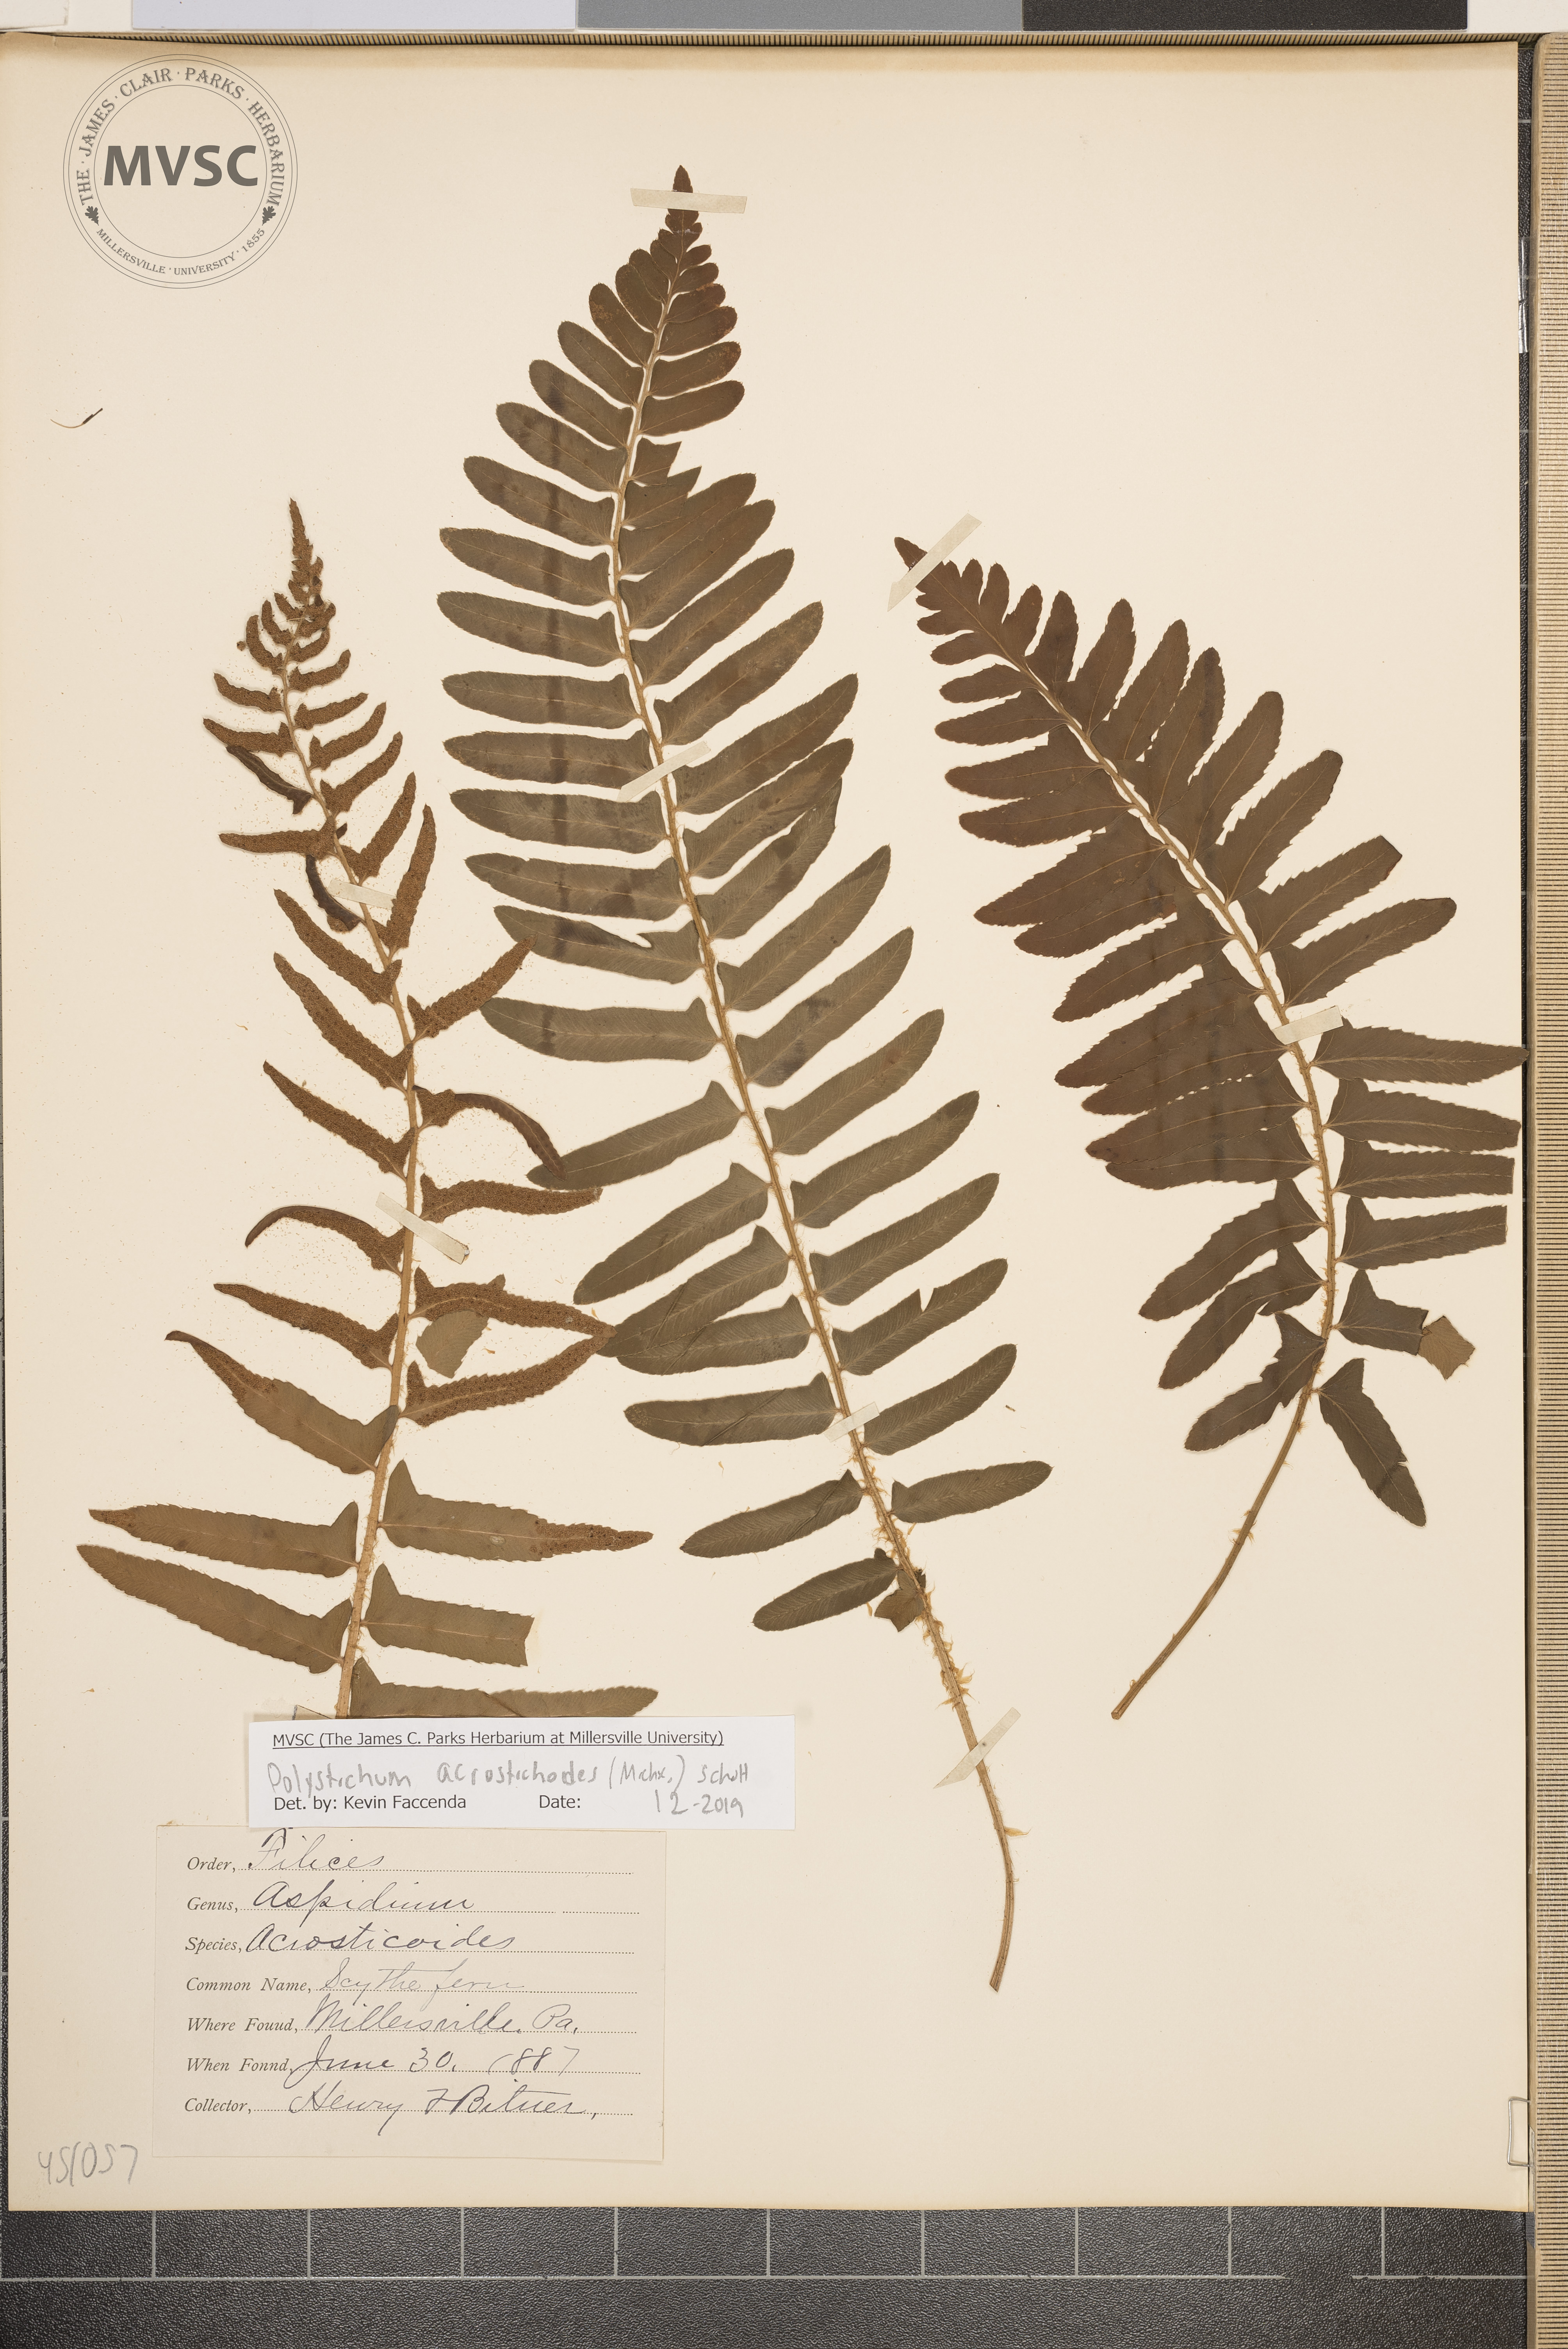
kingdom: Plantae
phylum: Tracheophyta
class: Polypodiopsida
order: Polypodiales
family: Dryopteridaceae
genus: Polystichum
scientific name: Polystichum acrostichoides
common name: Christmas fern
